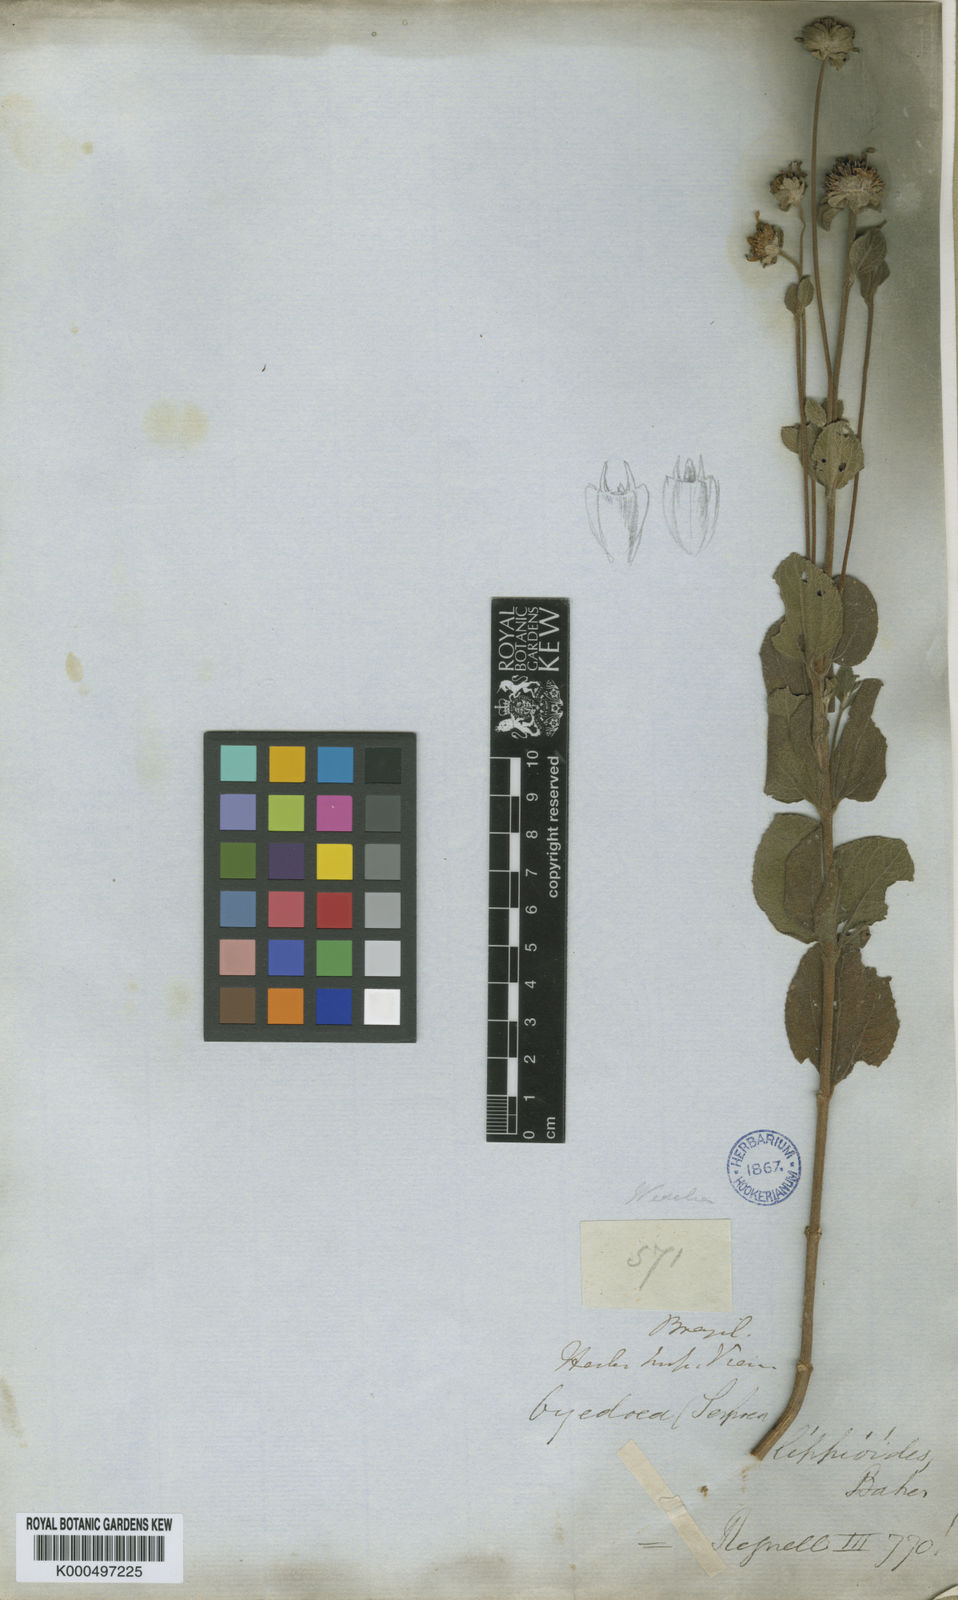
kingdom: Plantae
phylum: Tracheophyta
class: Magnoliopsida
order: Asterales
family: Asteraceae
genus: Dimerostemma
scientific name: Dimerostemma brasilianum
